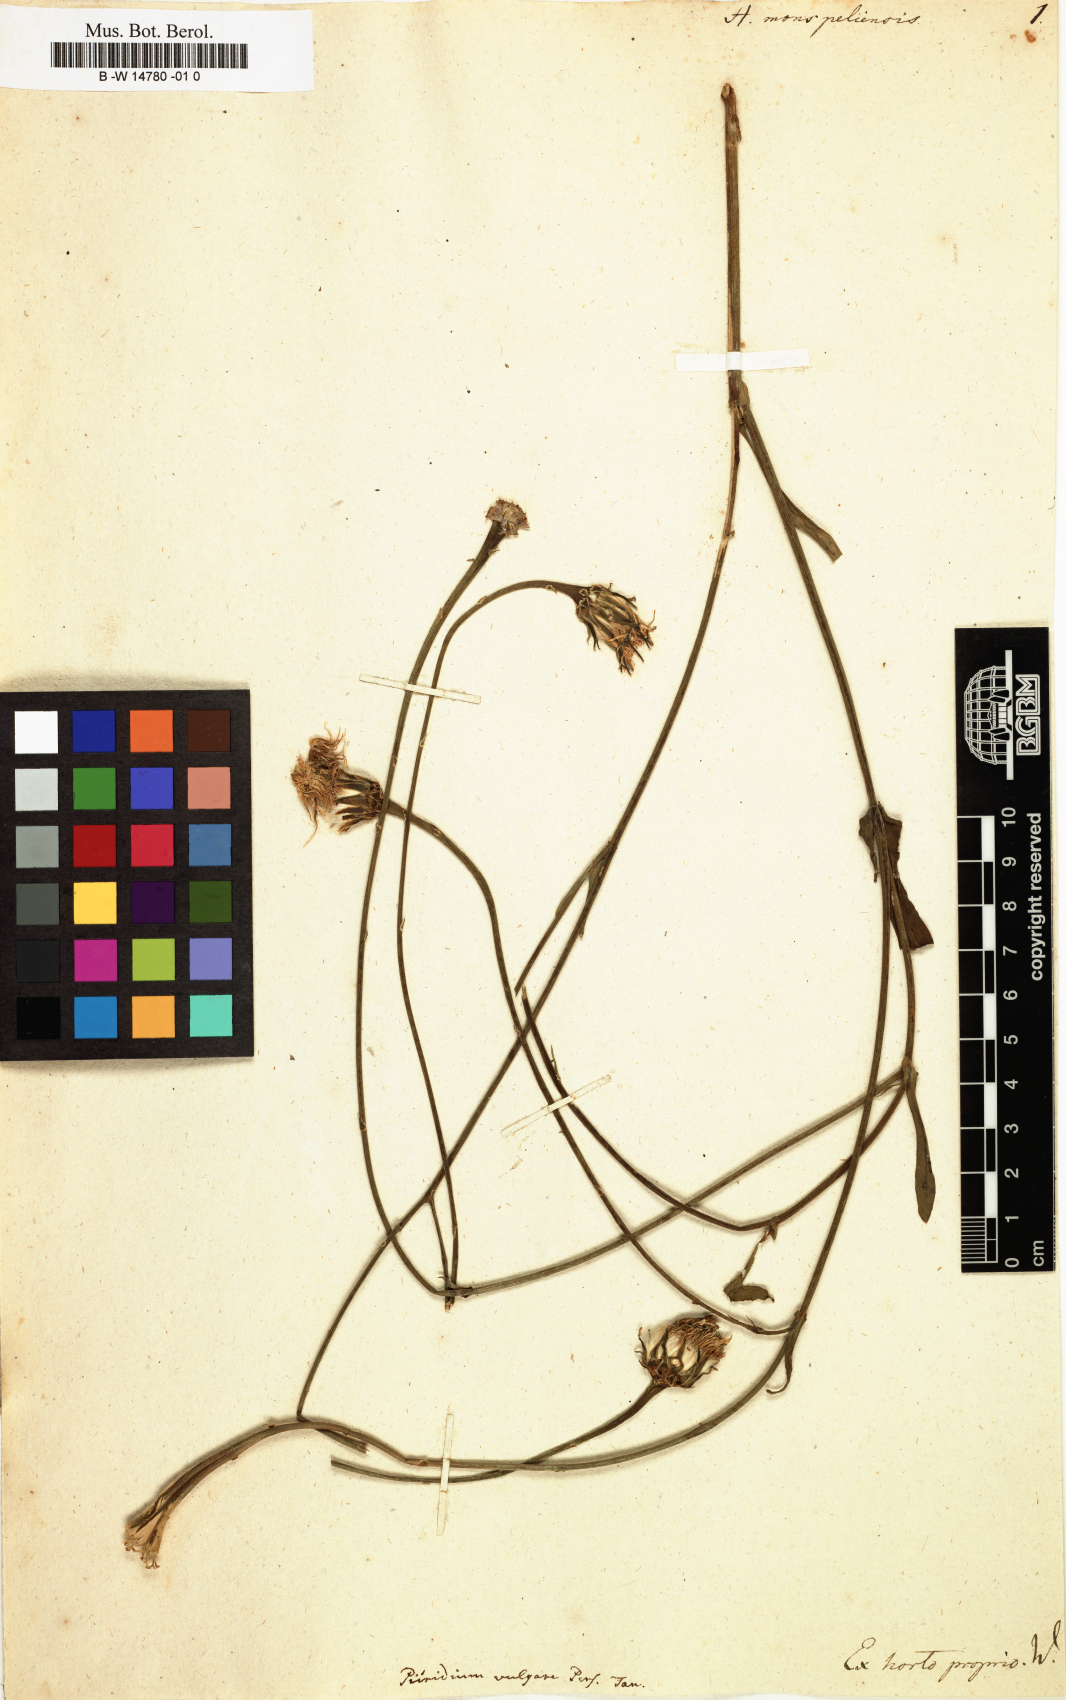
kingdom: Plantae
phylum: Tracheophyta
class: Magnoliopsida
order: Asterales
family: Asteraceae
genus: Hedypnois
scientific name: Hedypnois rhagadioloides
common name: Cretan weed
